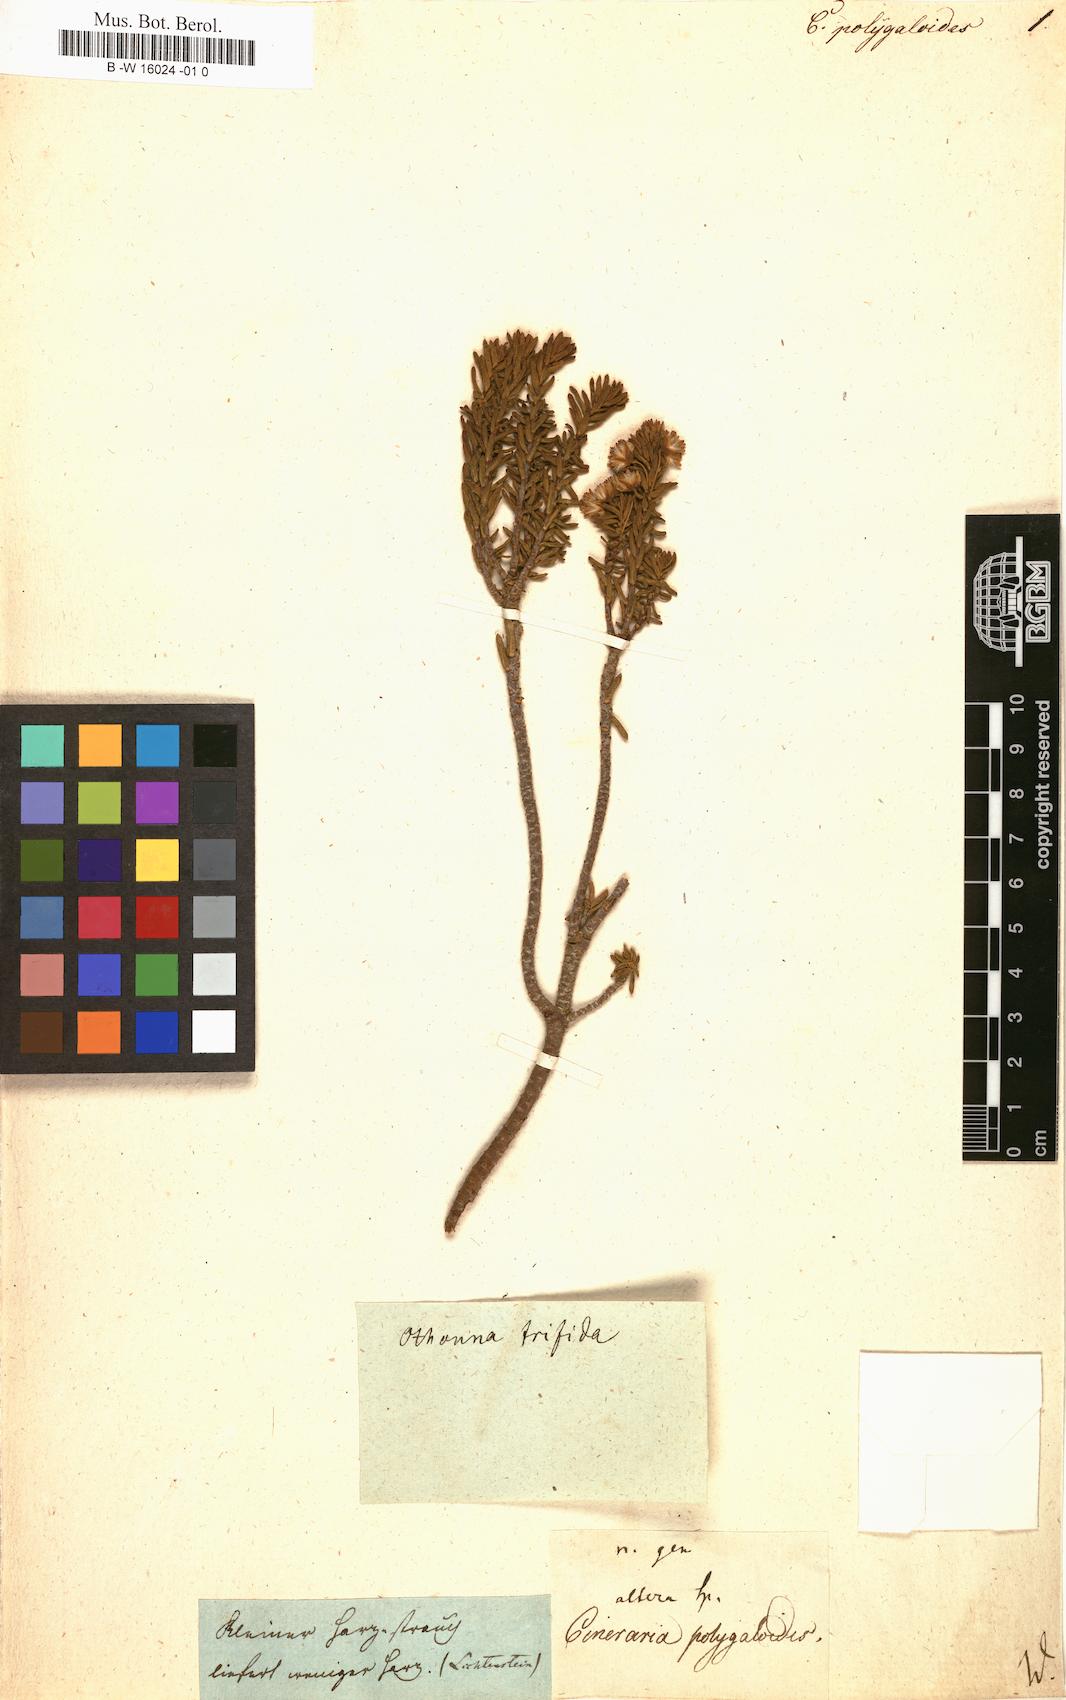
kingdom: Plantae
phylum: Tracheophyta
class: Magnoliopsida
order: Asterales
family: Asteraceae
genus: Cineraria
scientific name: Cineraria
